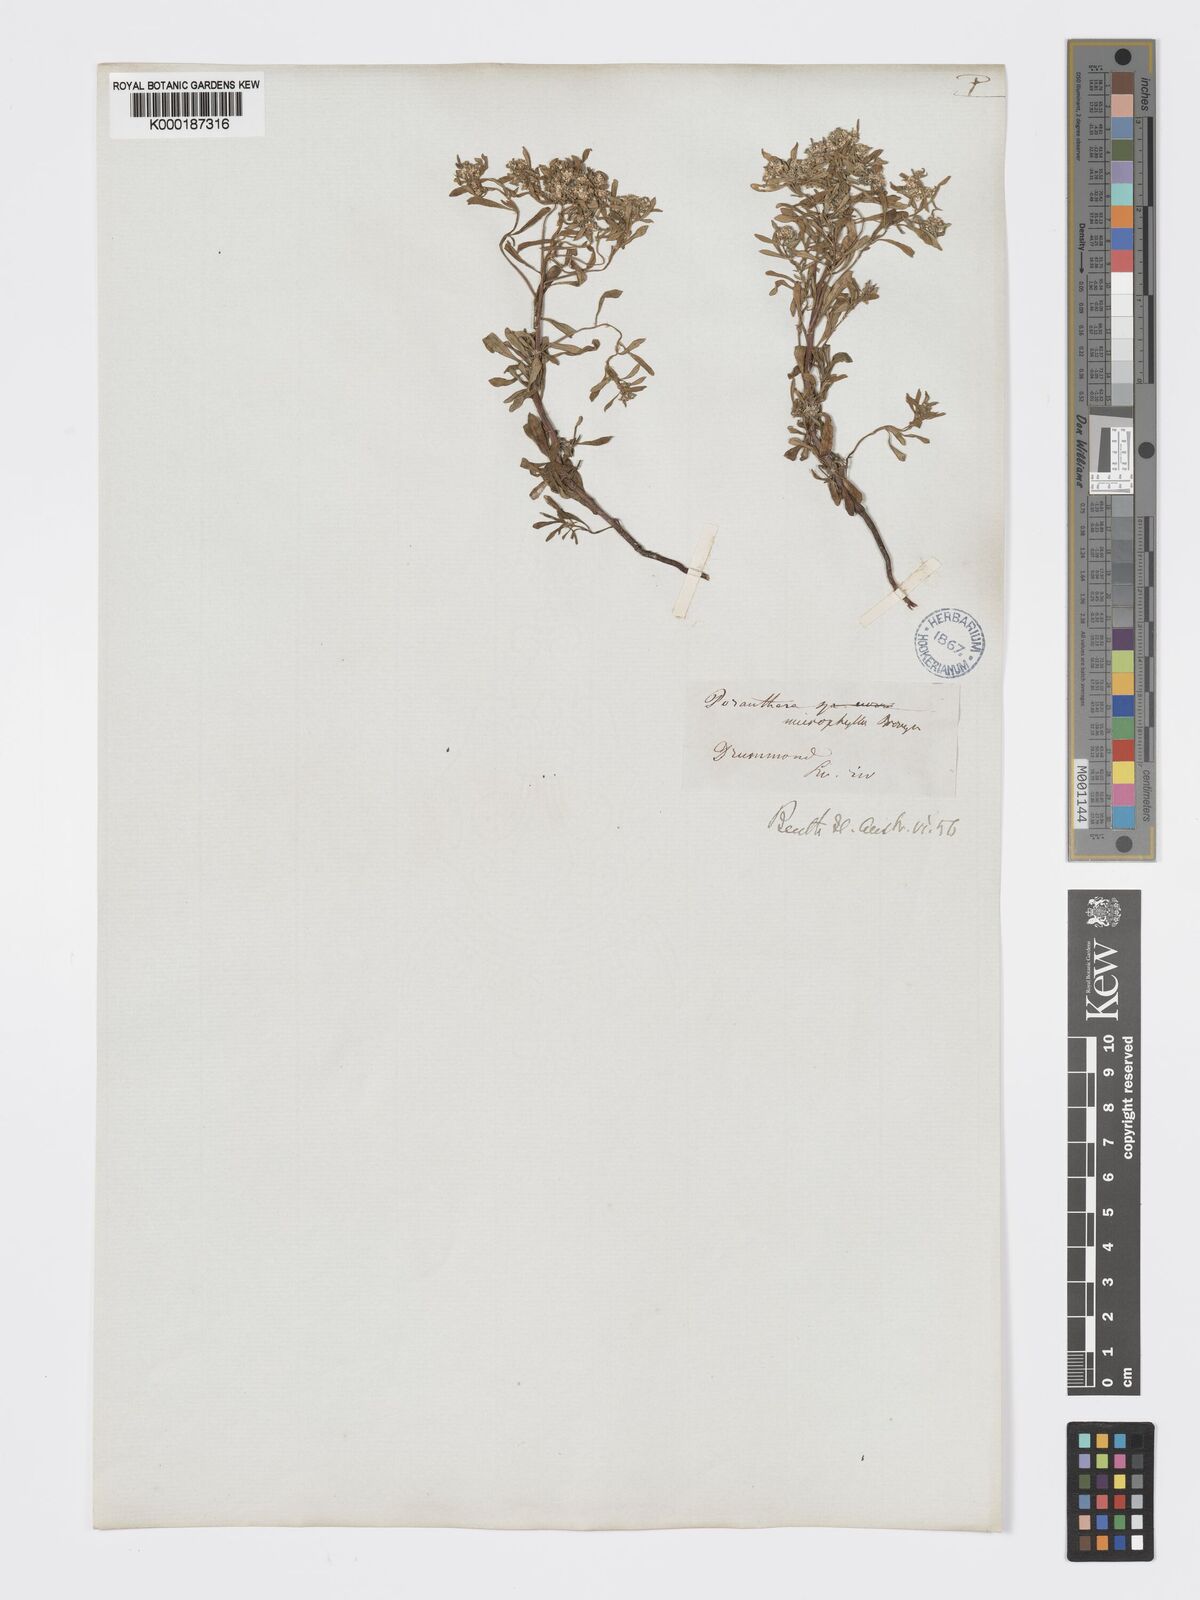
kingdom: Plantae
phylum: Tracheophyta
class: Magnoliopsida
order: Malpighiales
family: Phyllanthaceae
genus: Poranthera
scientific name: Poranthera microphylla
